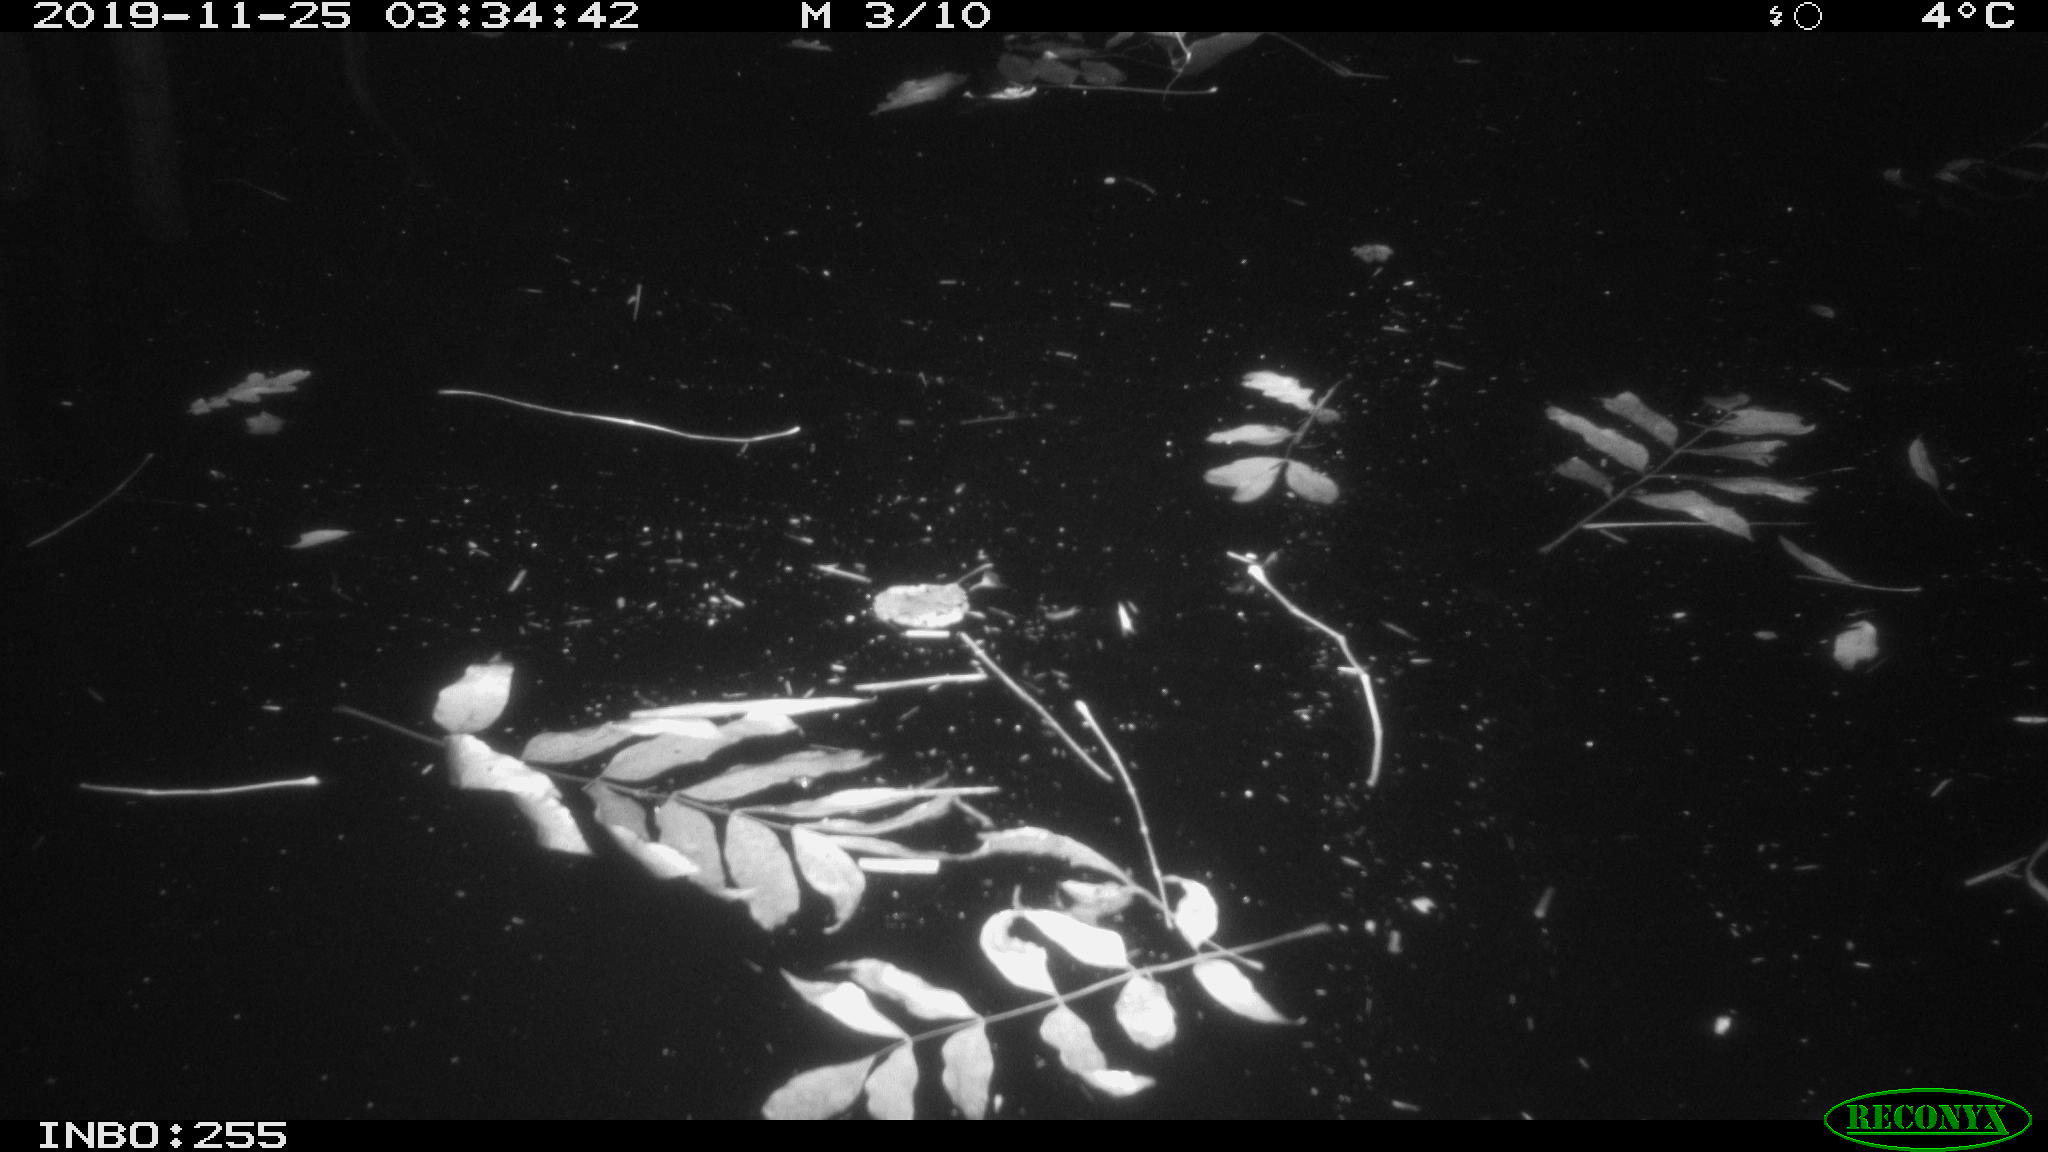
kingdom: Animalia
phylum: Chordata
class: Mammalia
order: Rodentia
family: Cricetidae
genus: Ondatra
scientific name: Ondatra zibethicus
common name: Muskrat
